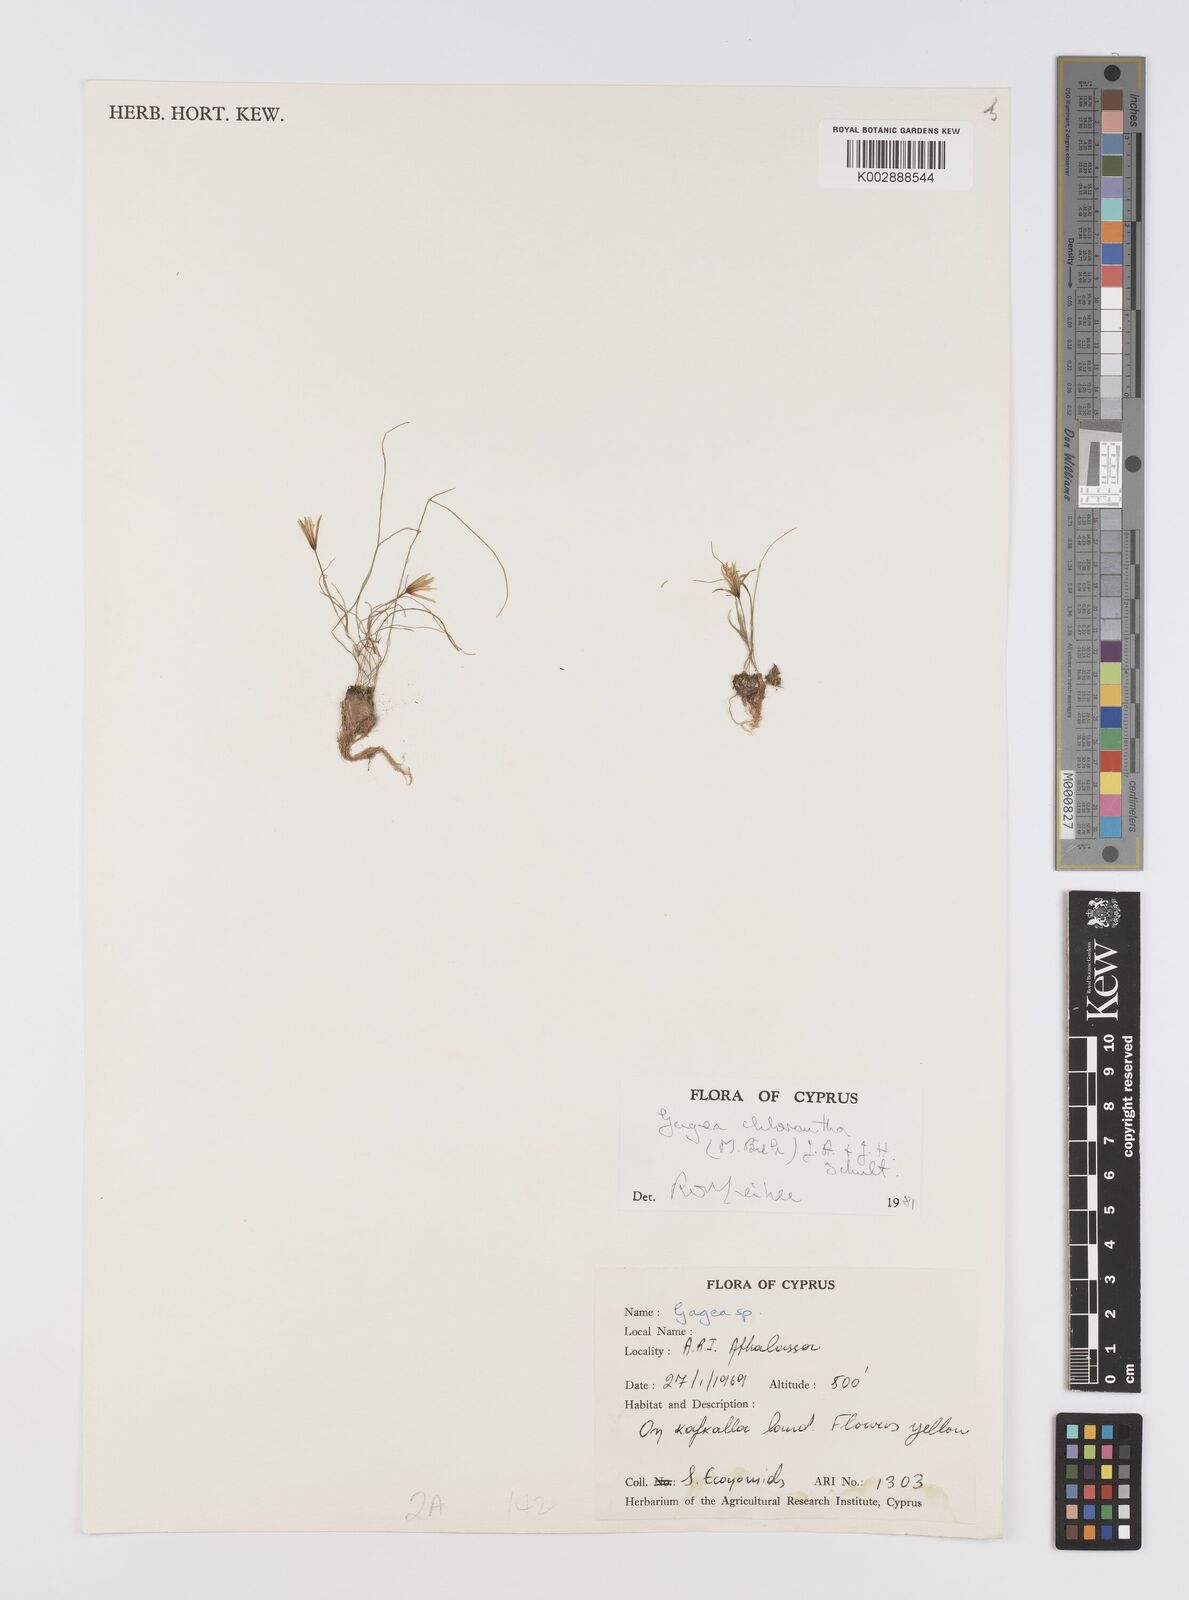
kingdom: Plantae
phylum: Tracheophyta
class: Liliopsida
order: Liliales
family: Liliaceae
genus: Gagea
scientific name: Gagea chlorantha
